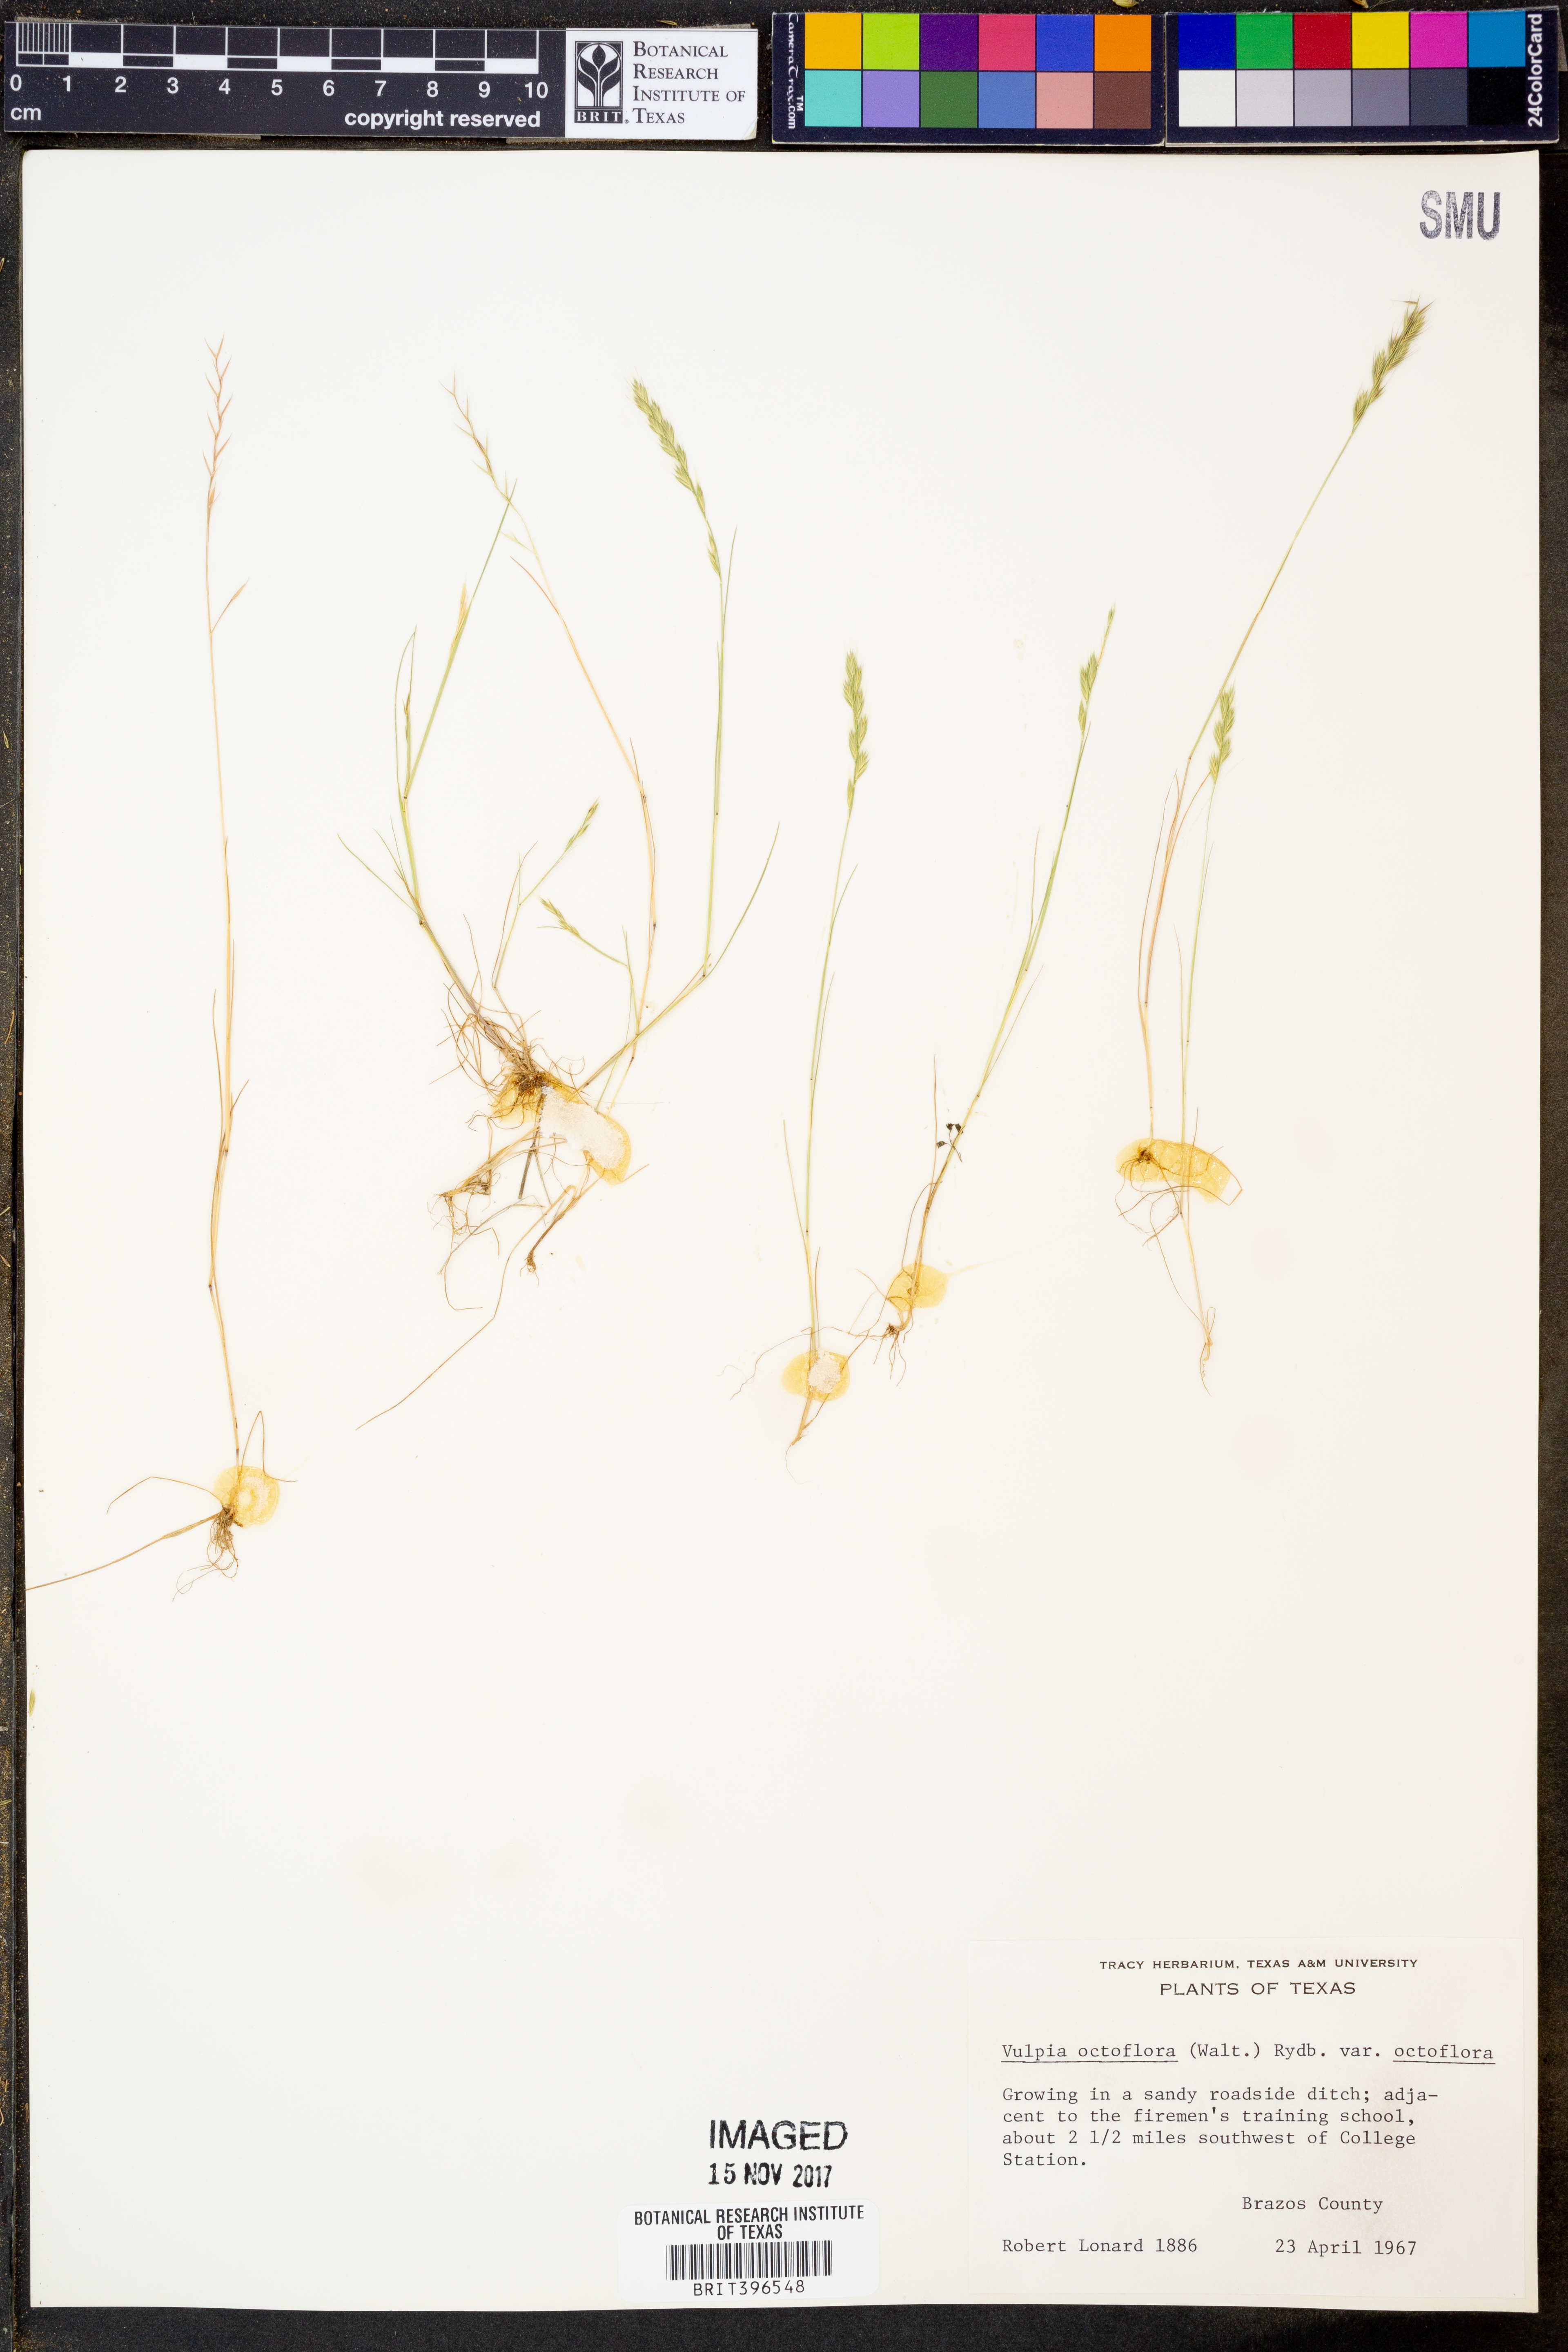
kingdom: Plantae
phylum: Tracheophyta
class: Liliopsida
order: Poales
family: Poaceae
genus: Festuca
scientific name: Festuca octoflora
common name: Sixweeks grass
